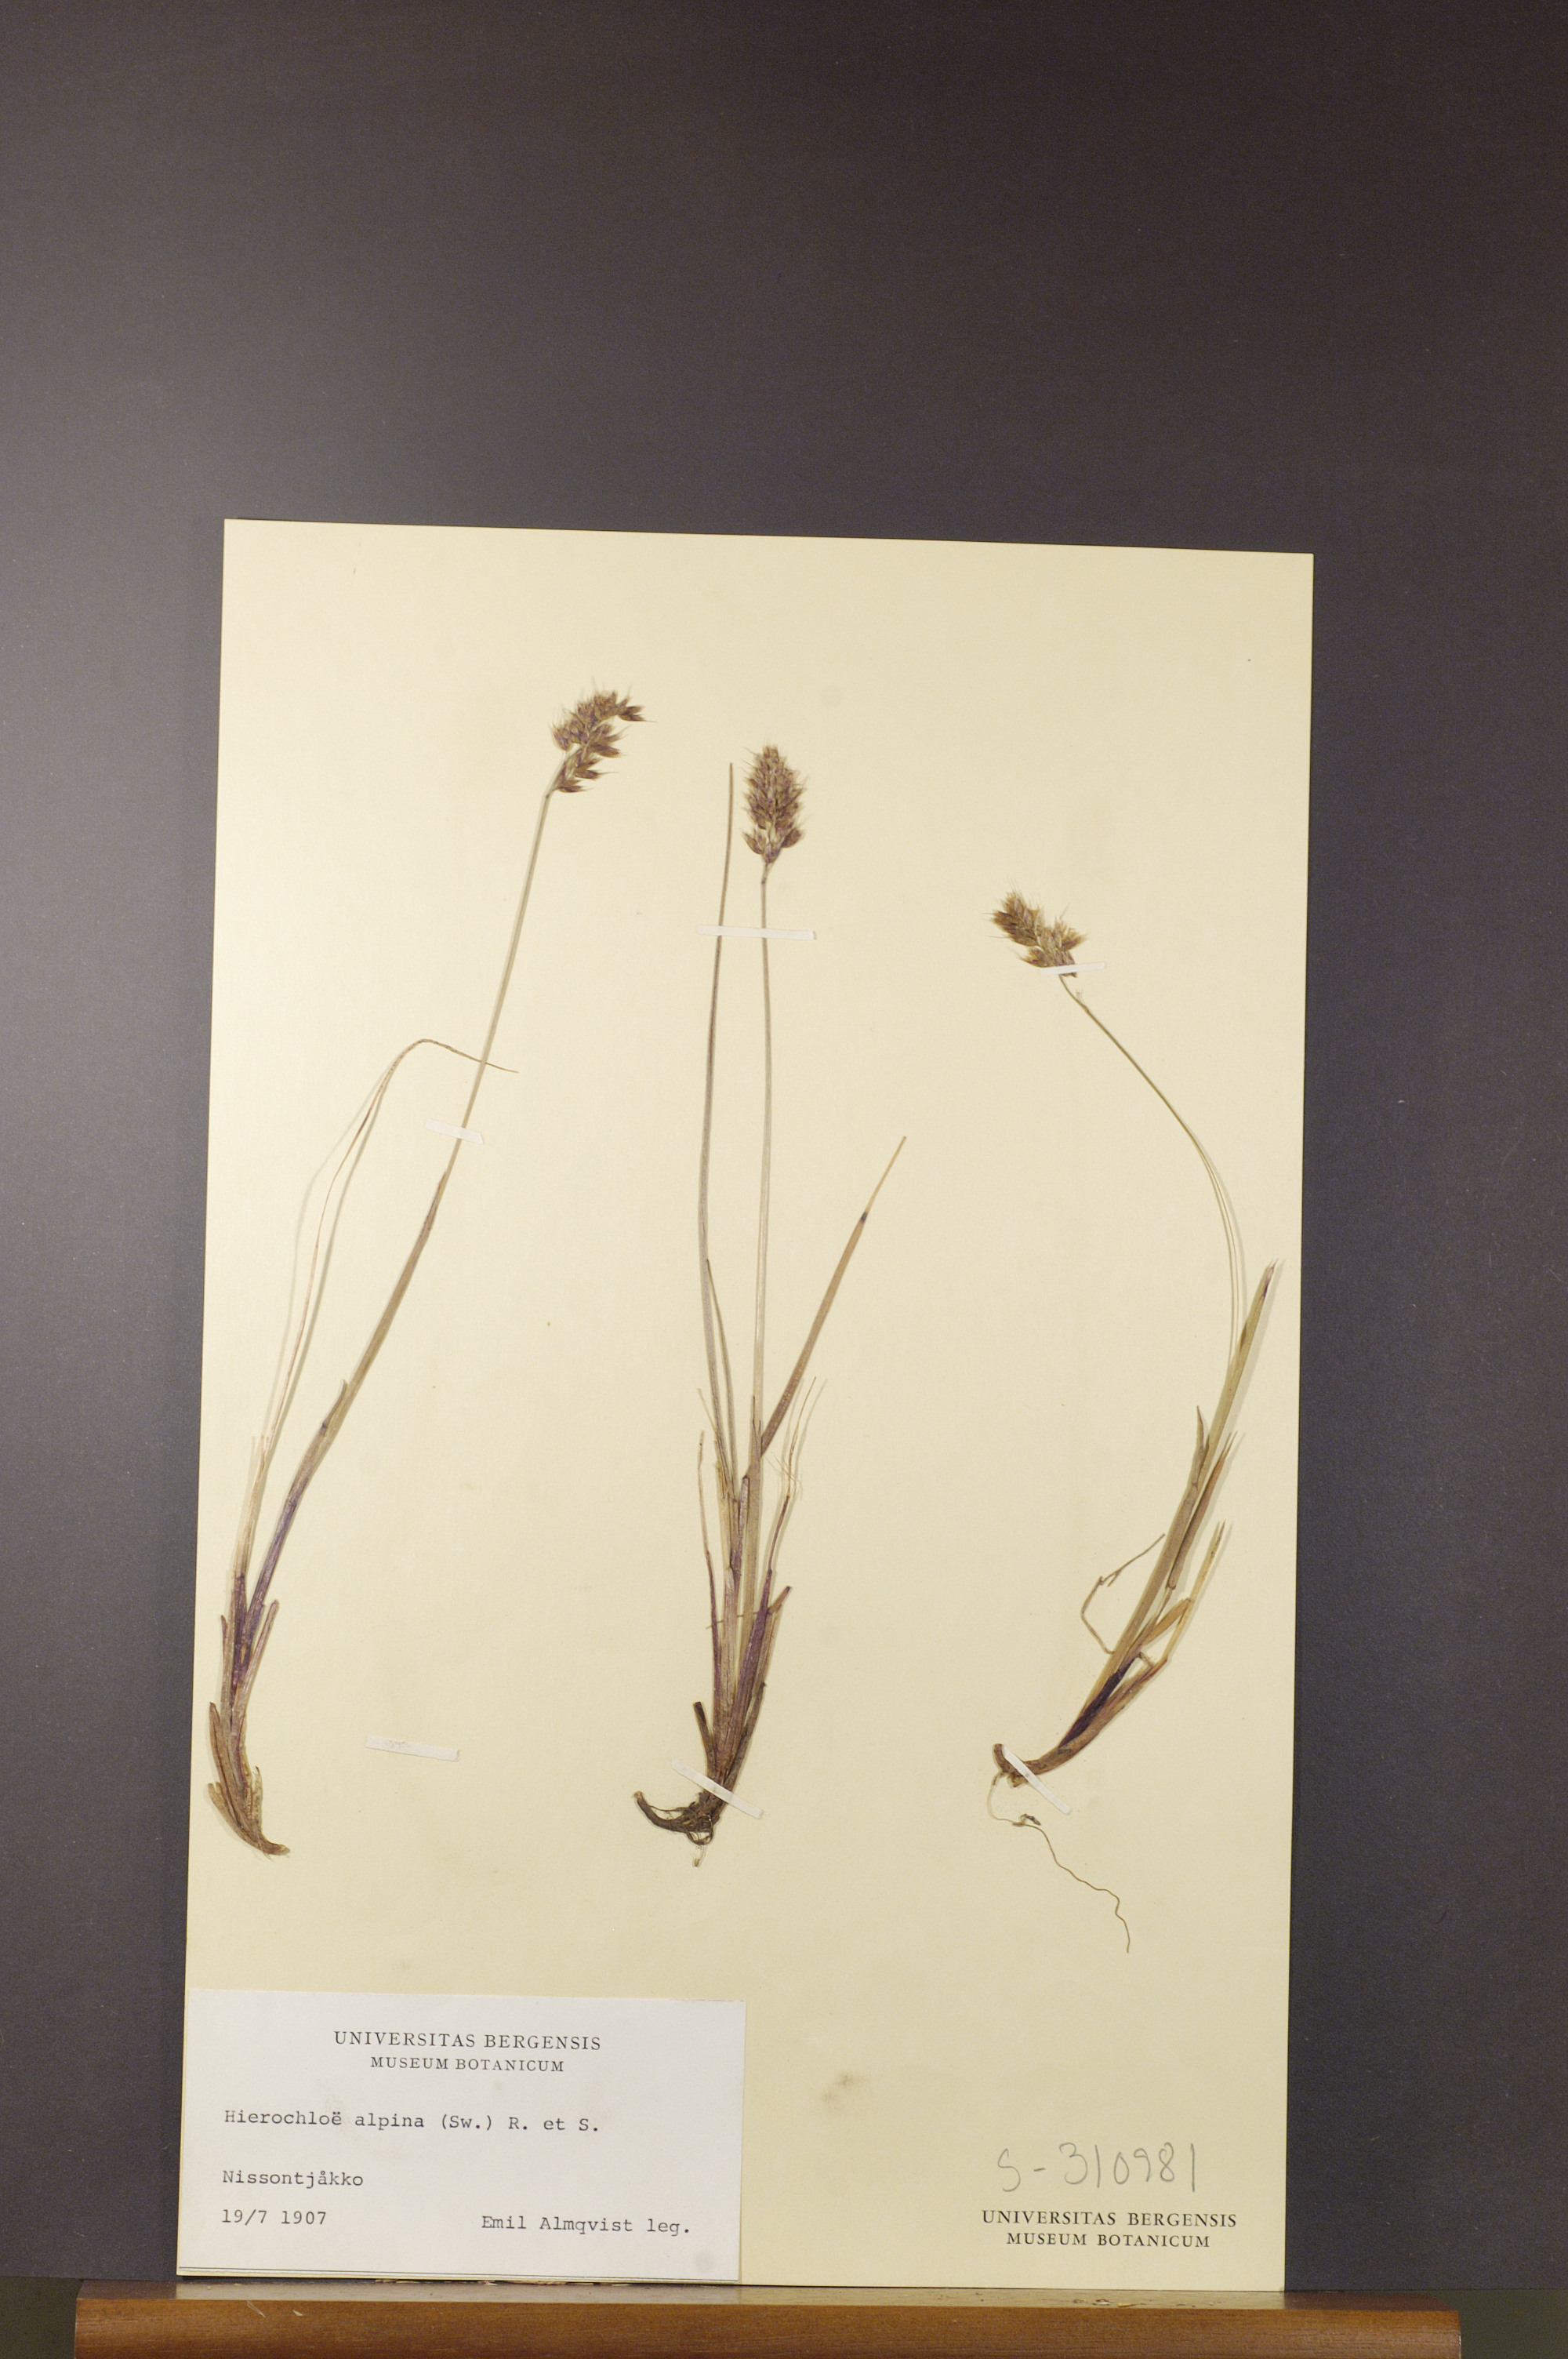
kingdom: Plantae
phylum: Tracheophyta
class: Liliopsida
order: Poales
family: Poaceae
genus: Anthoxanthum
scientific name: Anthoxanthum monticola
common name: Alpine sweetgrass
